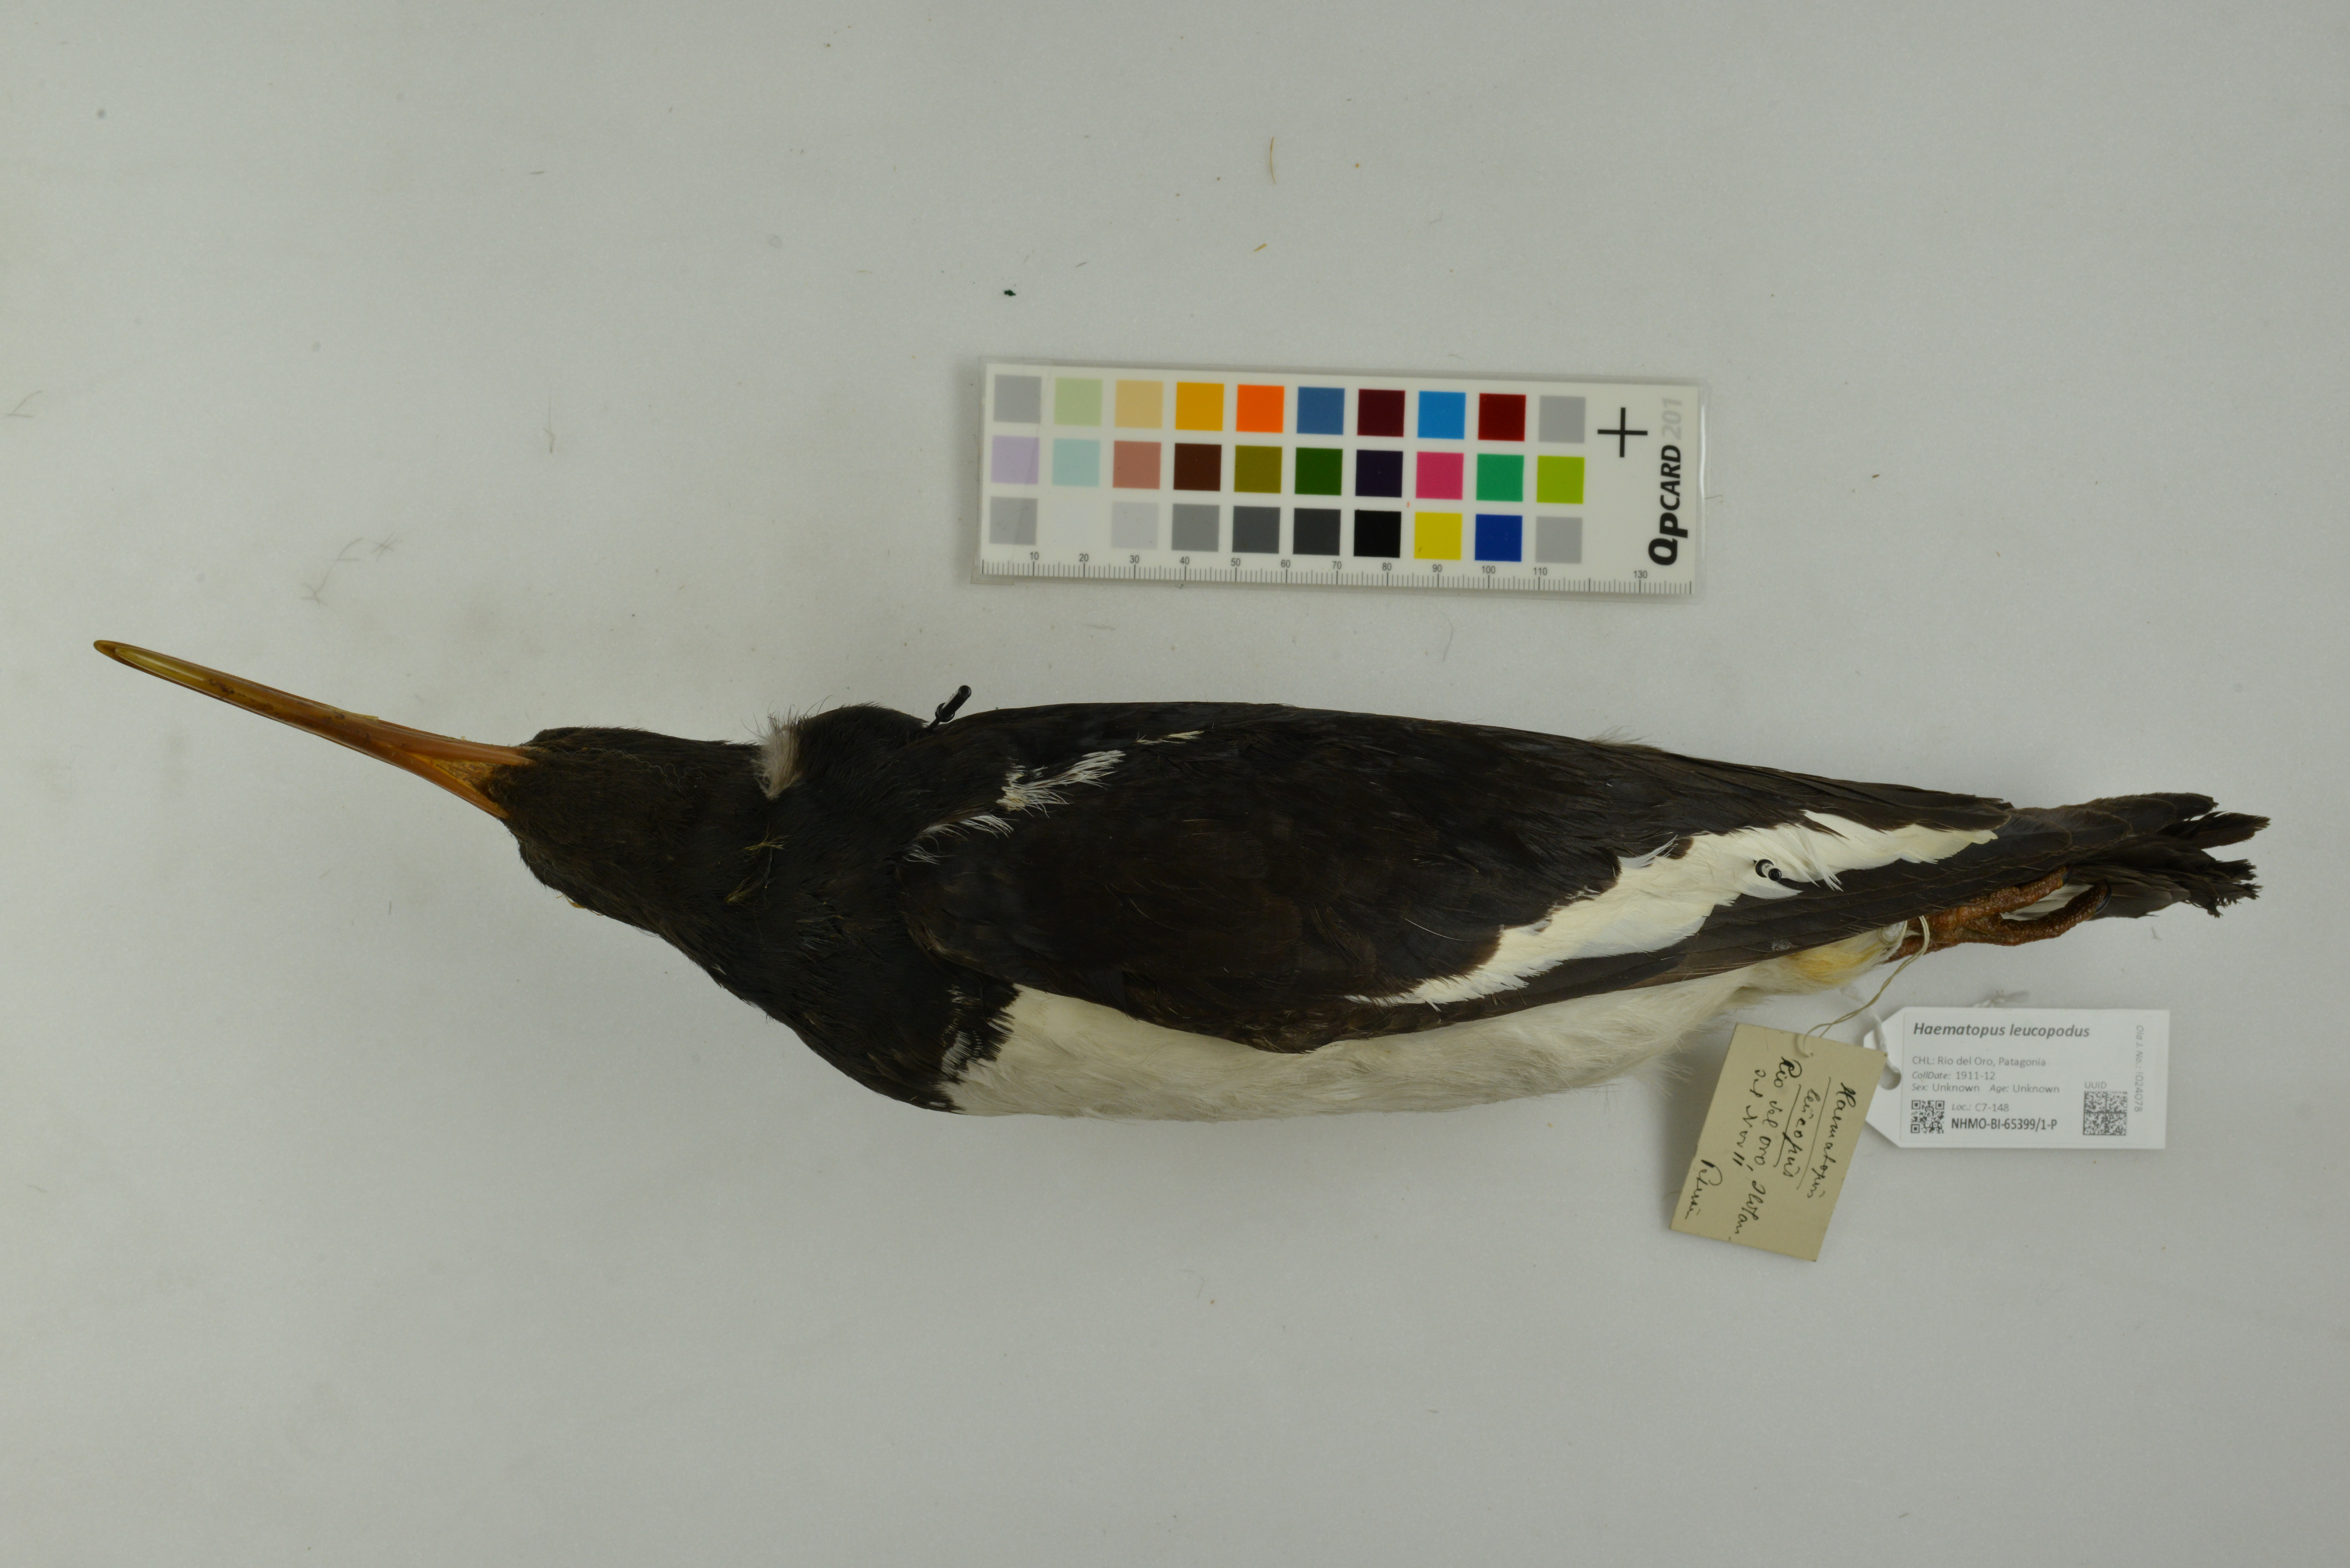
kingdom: Animalia
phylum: Chordata
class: Aves
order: Charadriiformes
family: Haematopodidae
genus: Haematopus
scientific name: Haematopus leucopodus
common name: Magellanic oystercatcher
